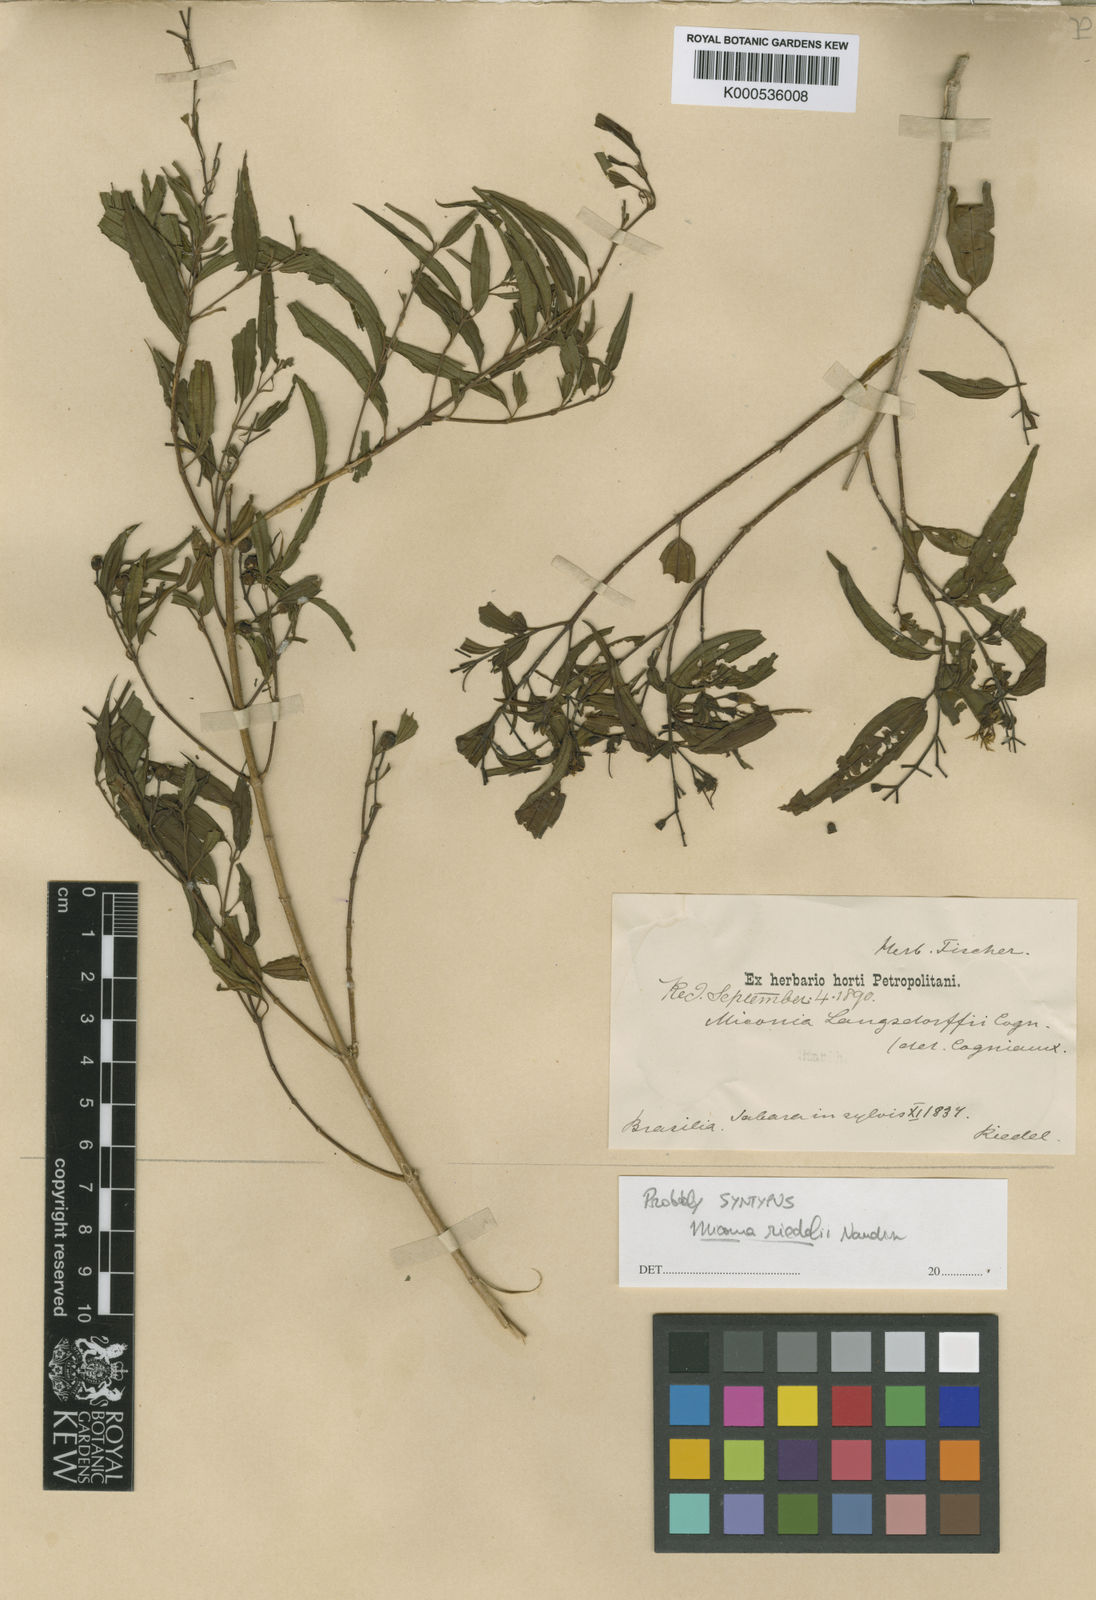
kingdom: Plantae
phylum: Tracheophyta
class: Magnoliopsida
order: Myrtales
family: Melastomataceae
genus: Miconia
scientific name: Miconia paucidens
